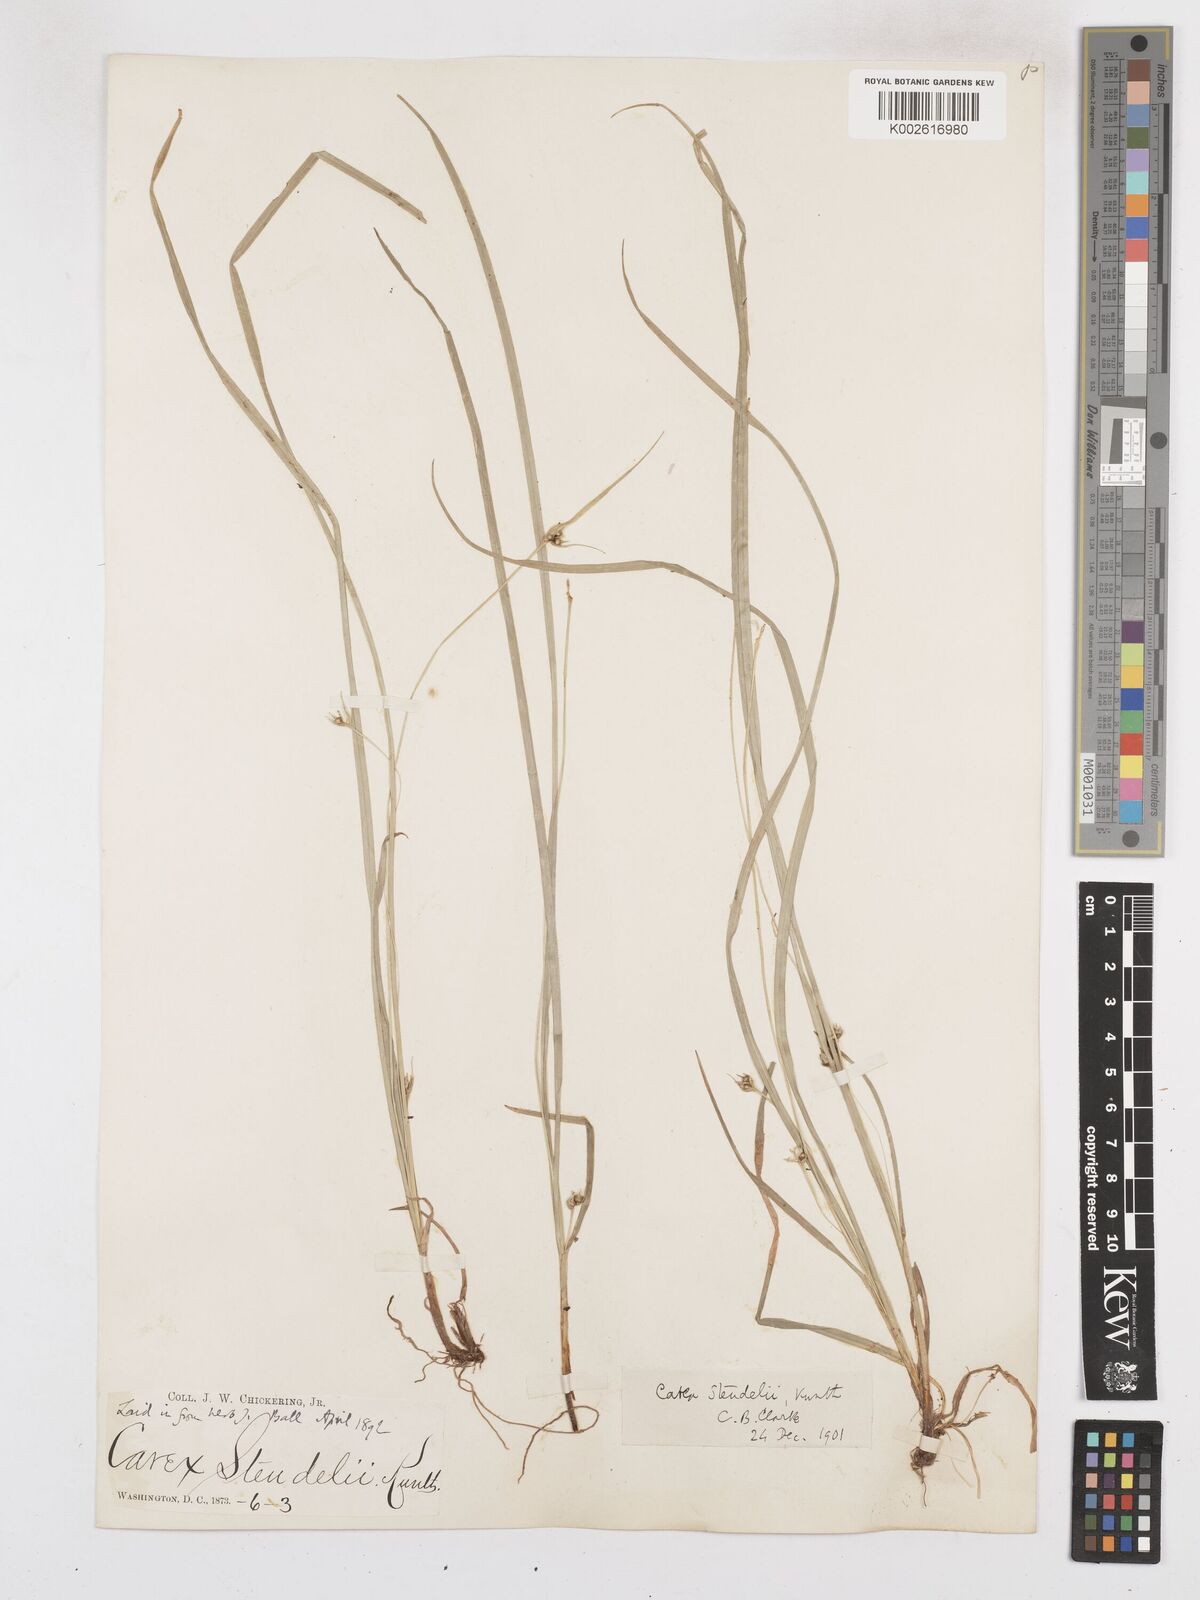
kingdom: Plantae
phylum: Tracheophyta
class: Liliopsida
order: Poales
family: Cyperaceae
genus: Carex
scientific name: Carex jamesii
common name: Grass sedge
